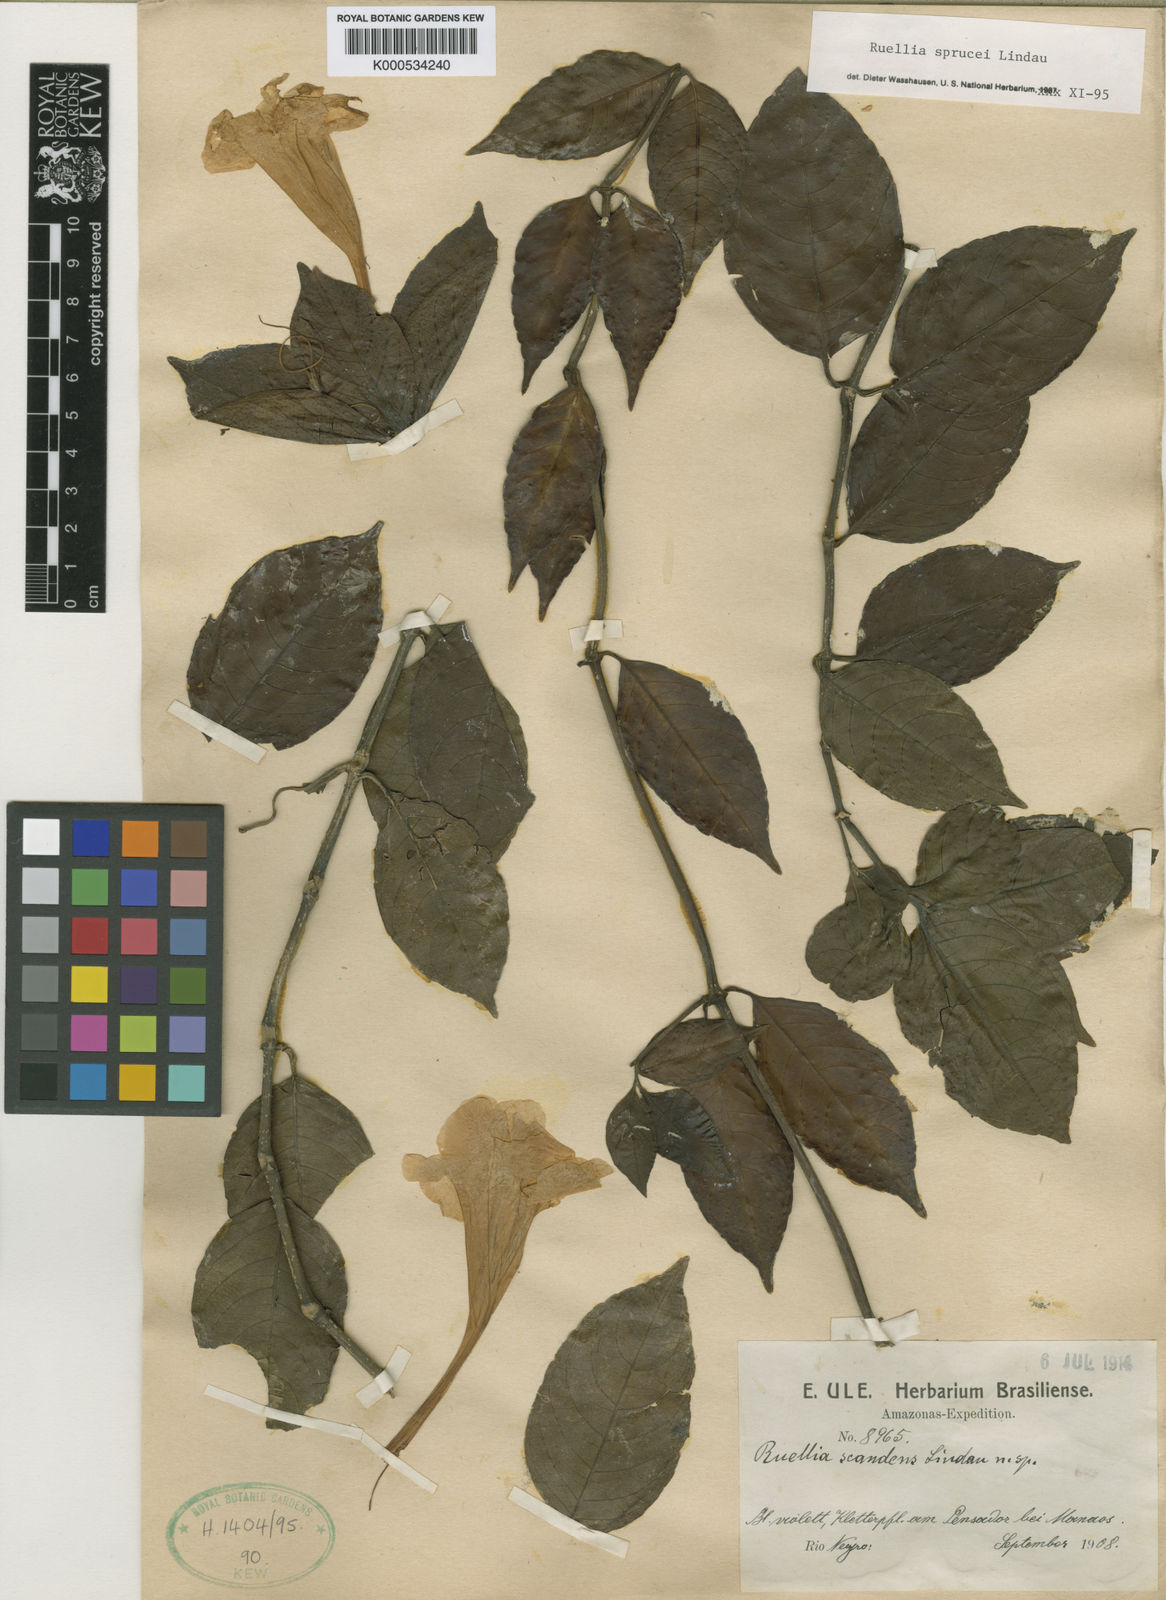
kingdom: Plantae
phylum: Tracheophyta
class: Magnoliopsida
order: Lamiales
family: Acanthaceae
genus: Ruellia
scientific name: Ruellia sprucei
